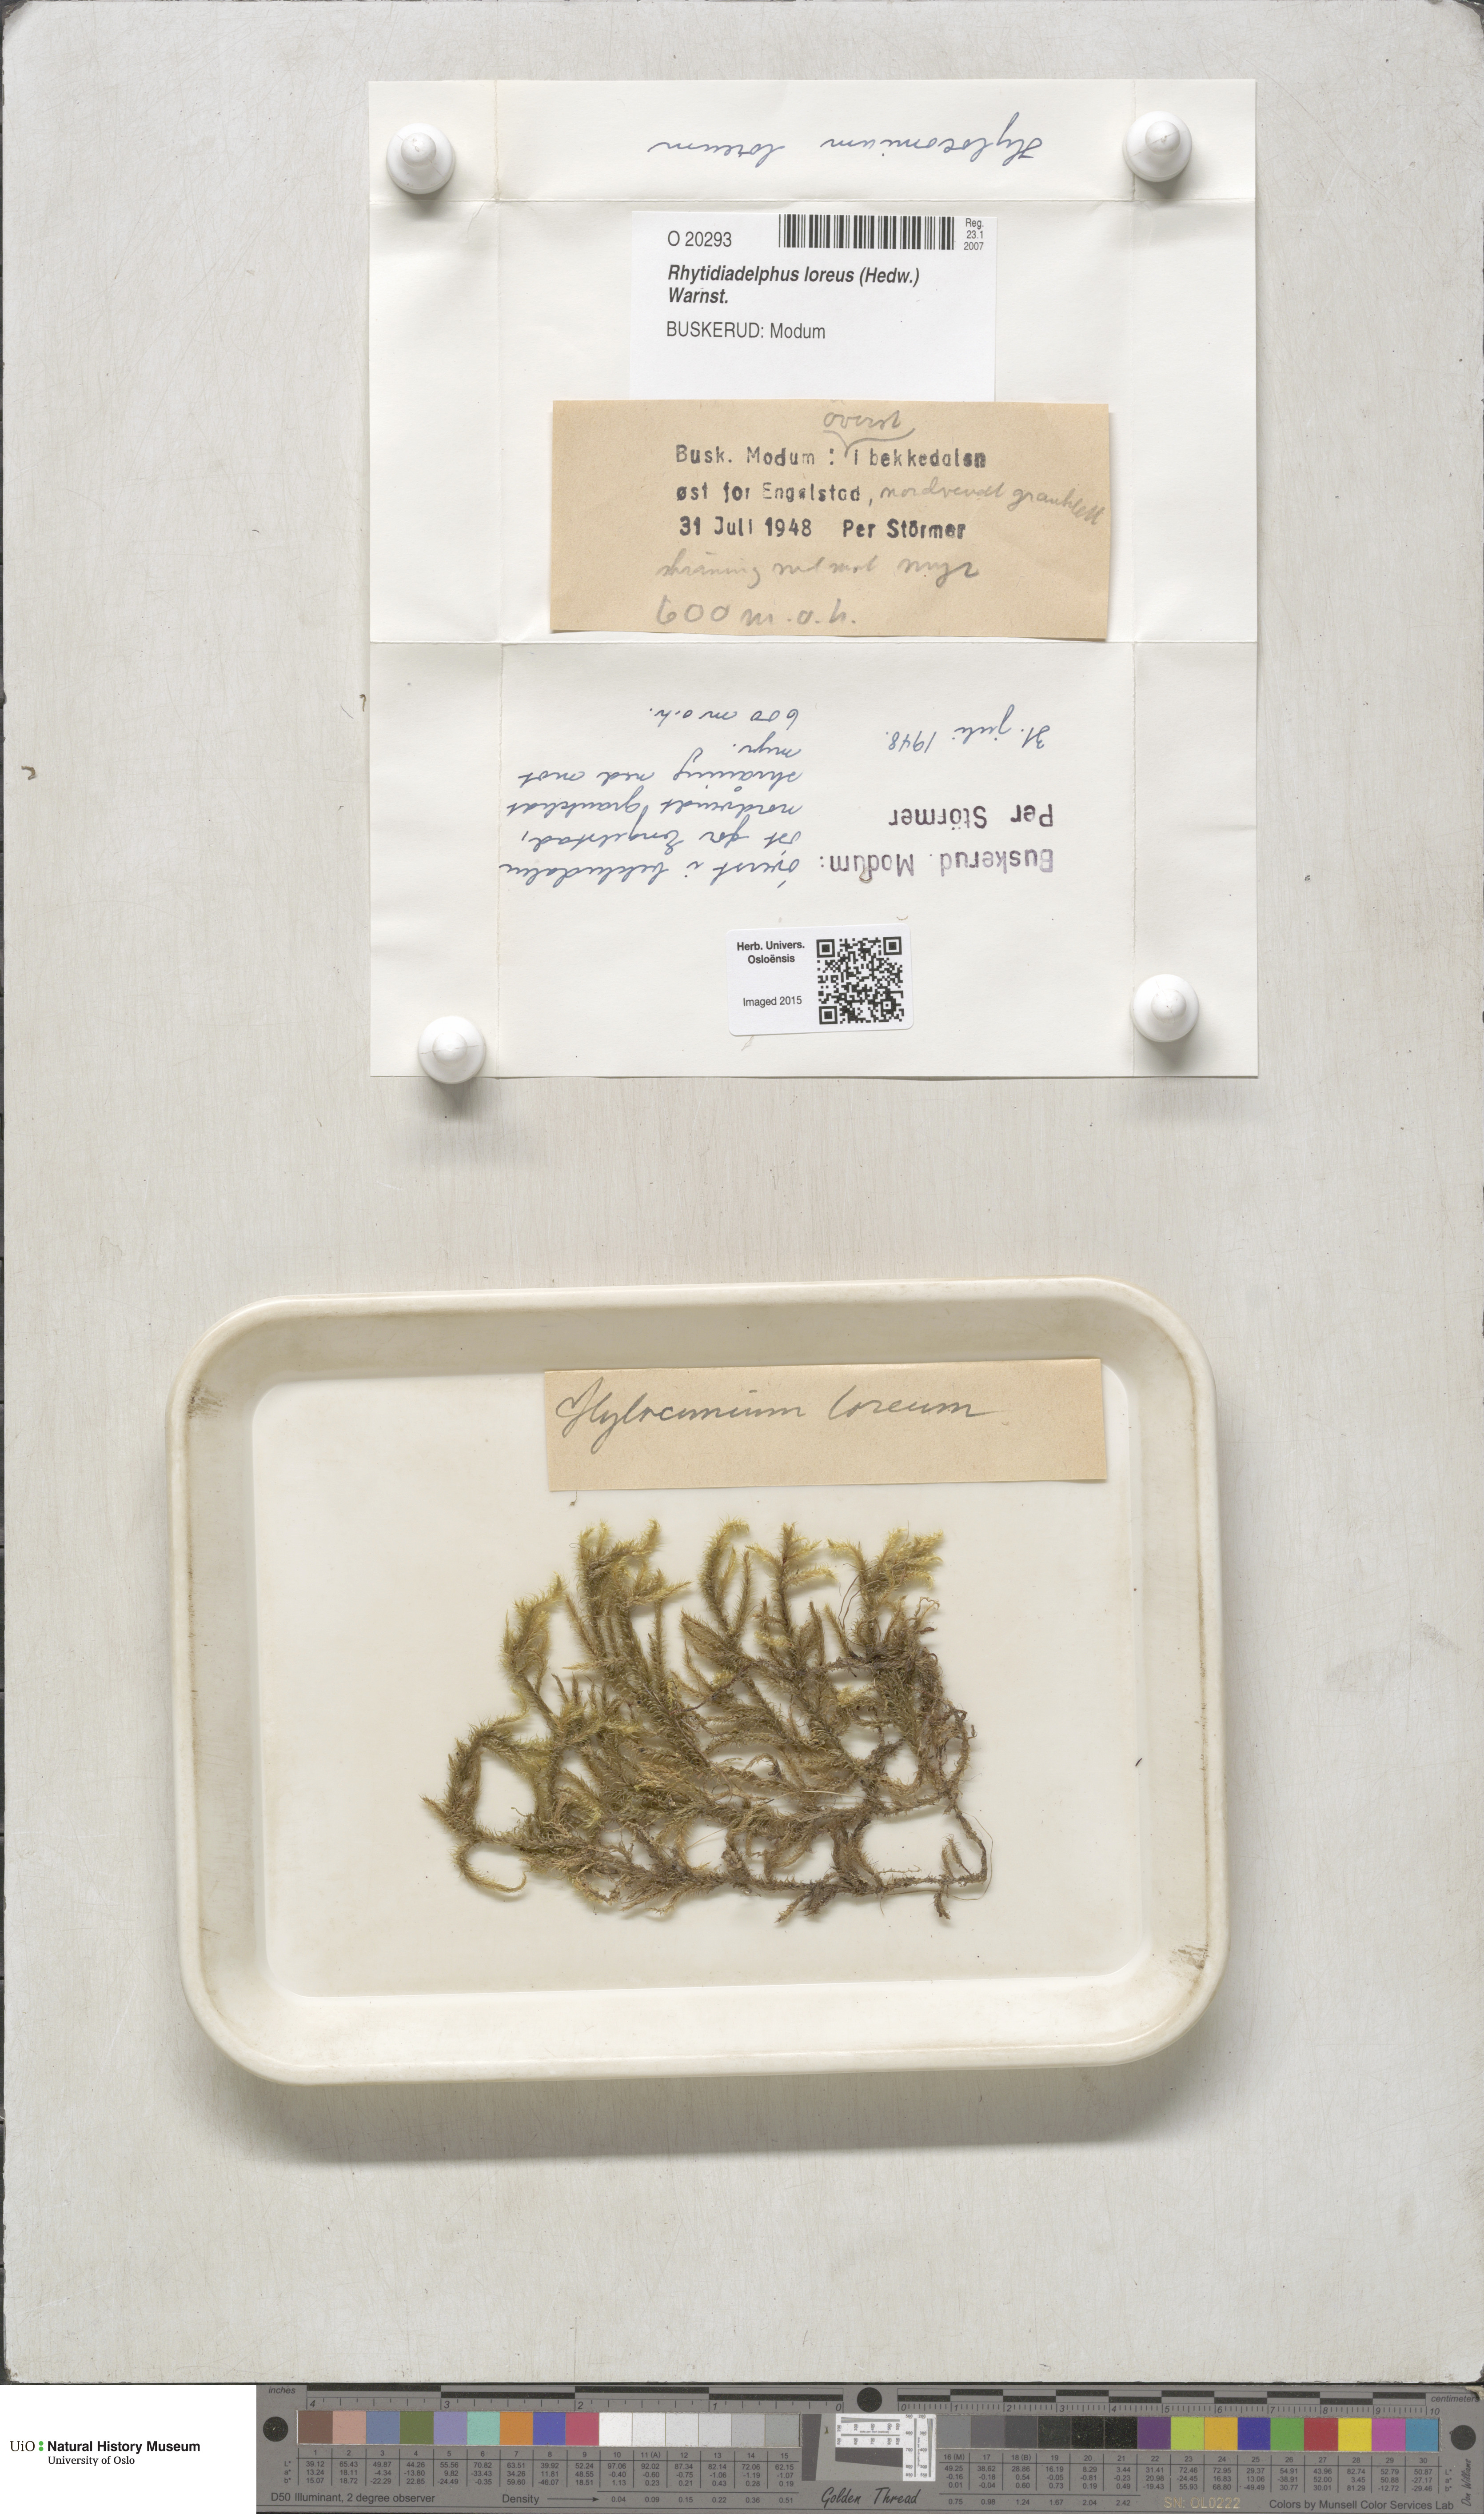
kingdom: Plantae
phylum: Bryophyta
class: Bryopsida
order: Hypnales
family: Hylocomiaceae
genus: Rhytidiadelphus
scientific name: Rhytidiadelphus loreus
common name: Lanky moss
